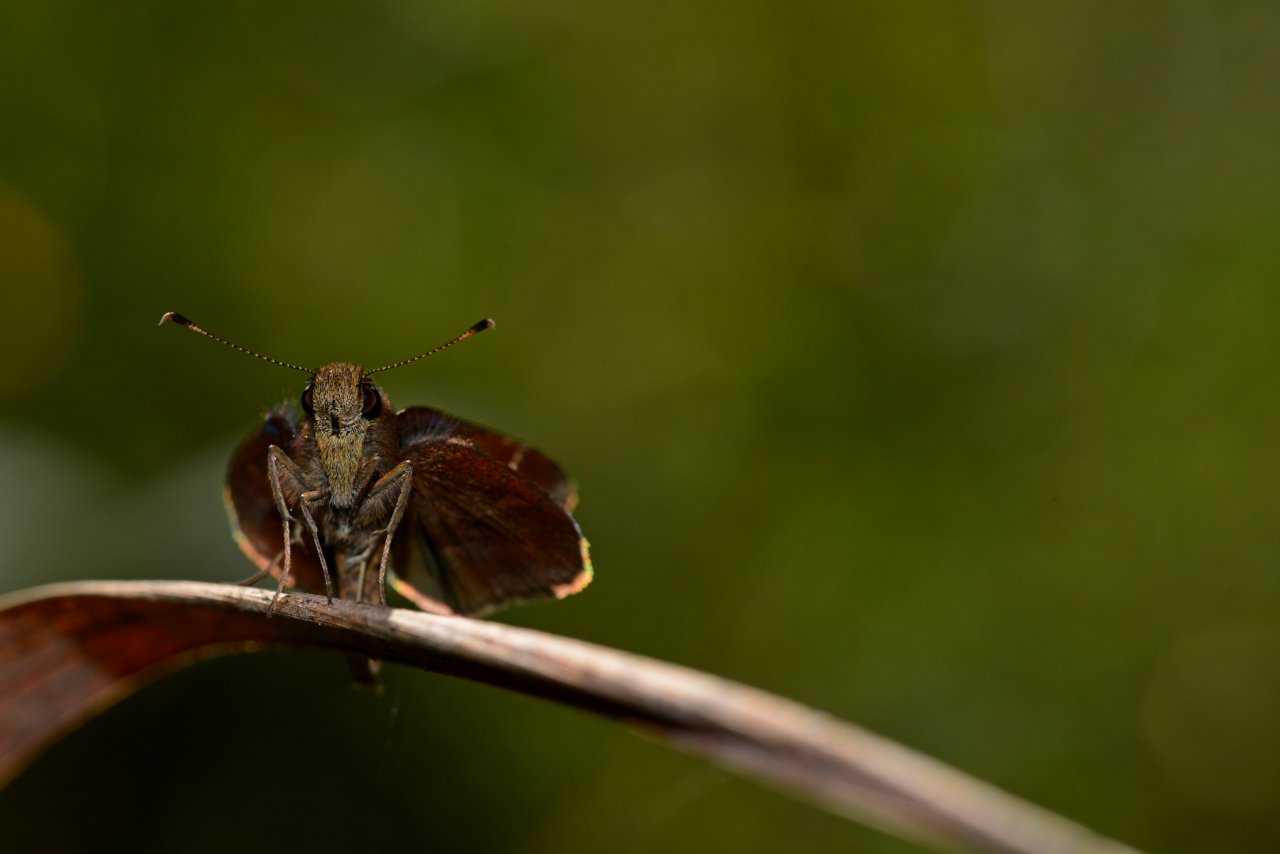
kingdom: Animalia
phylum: Arthropoda
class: Insecta
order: Lepidoptera
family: Hesperiidae
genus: Lerema
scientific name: Lerema accius
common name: Clouded Skipper
